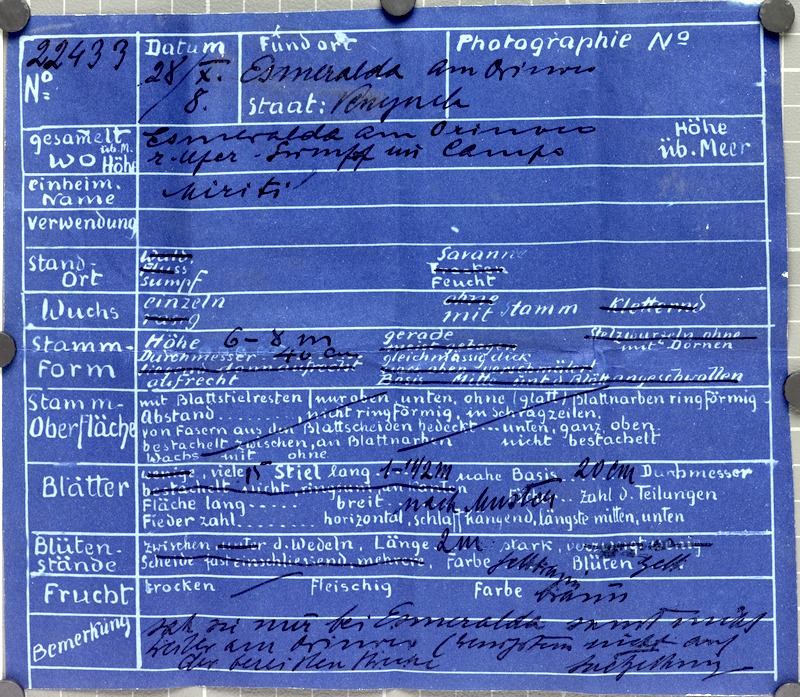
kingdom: Plantae
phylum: Tracheophyta
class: Liliopsida
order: Arecales
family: Arecaceae
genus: Mauritia
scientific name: Mauritia flexuosa
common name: Tree-of-life
